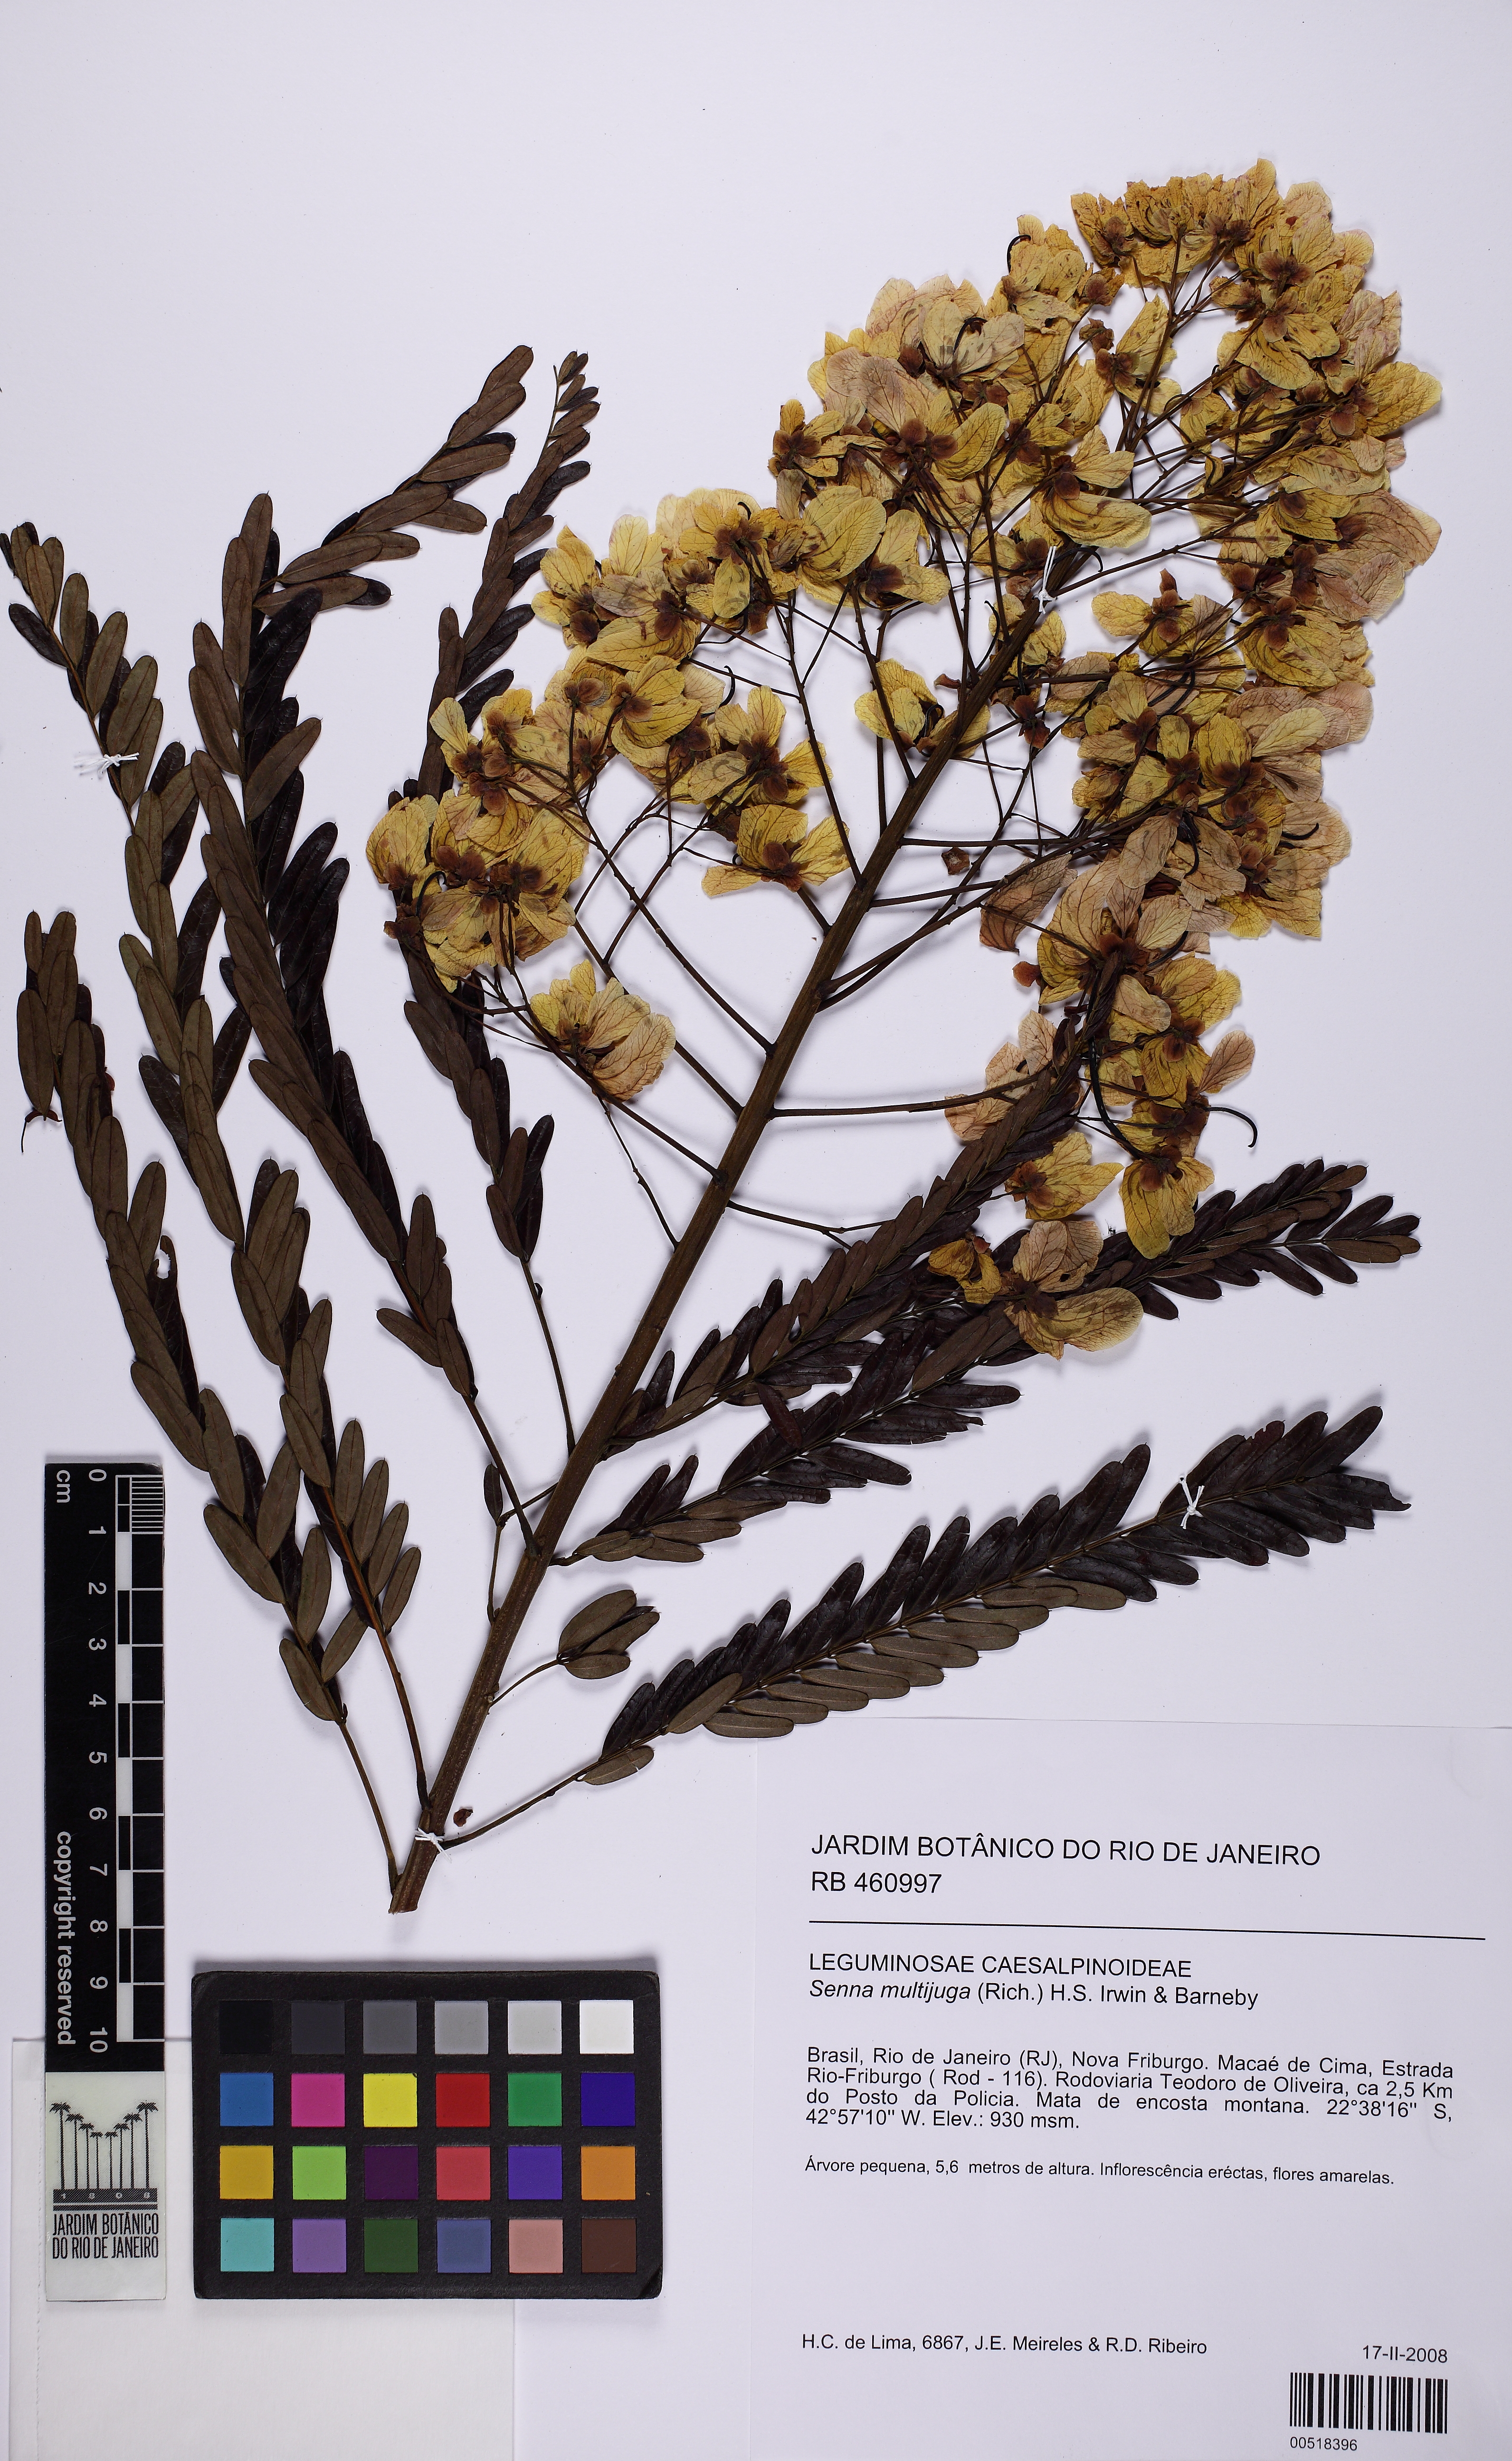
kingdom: Plantae
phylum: Tracheophyta
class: Magnoliopsida
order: Fabales
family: Fabaceae
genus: Senna
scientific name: Senna multijuga
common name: False sicklepod
